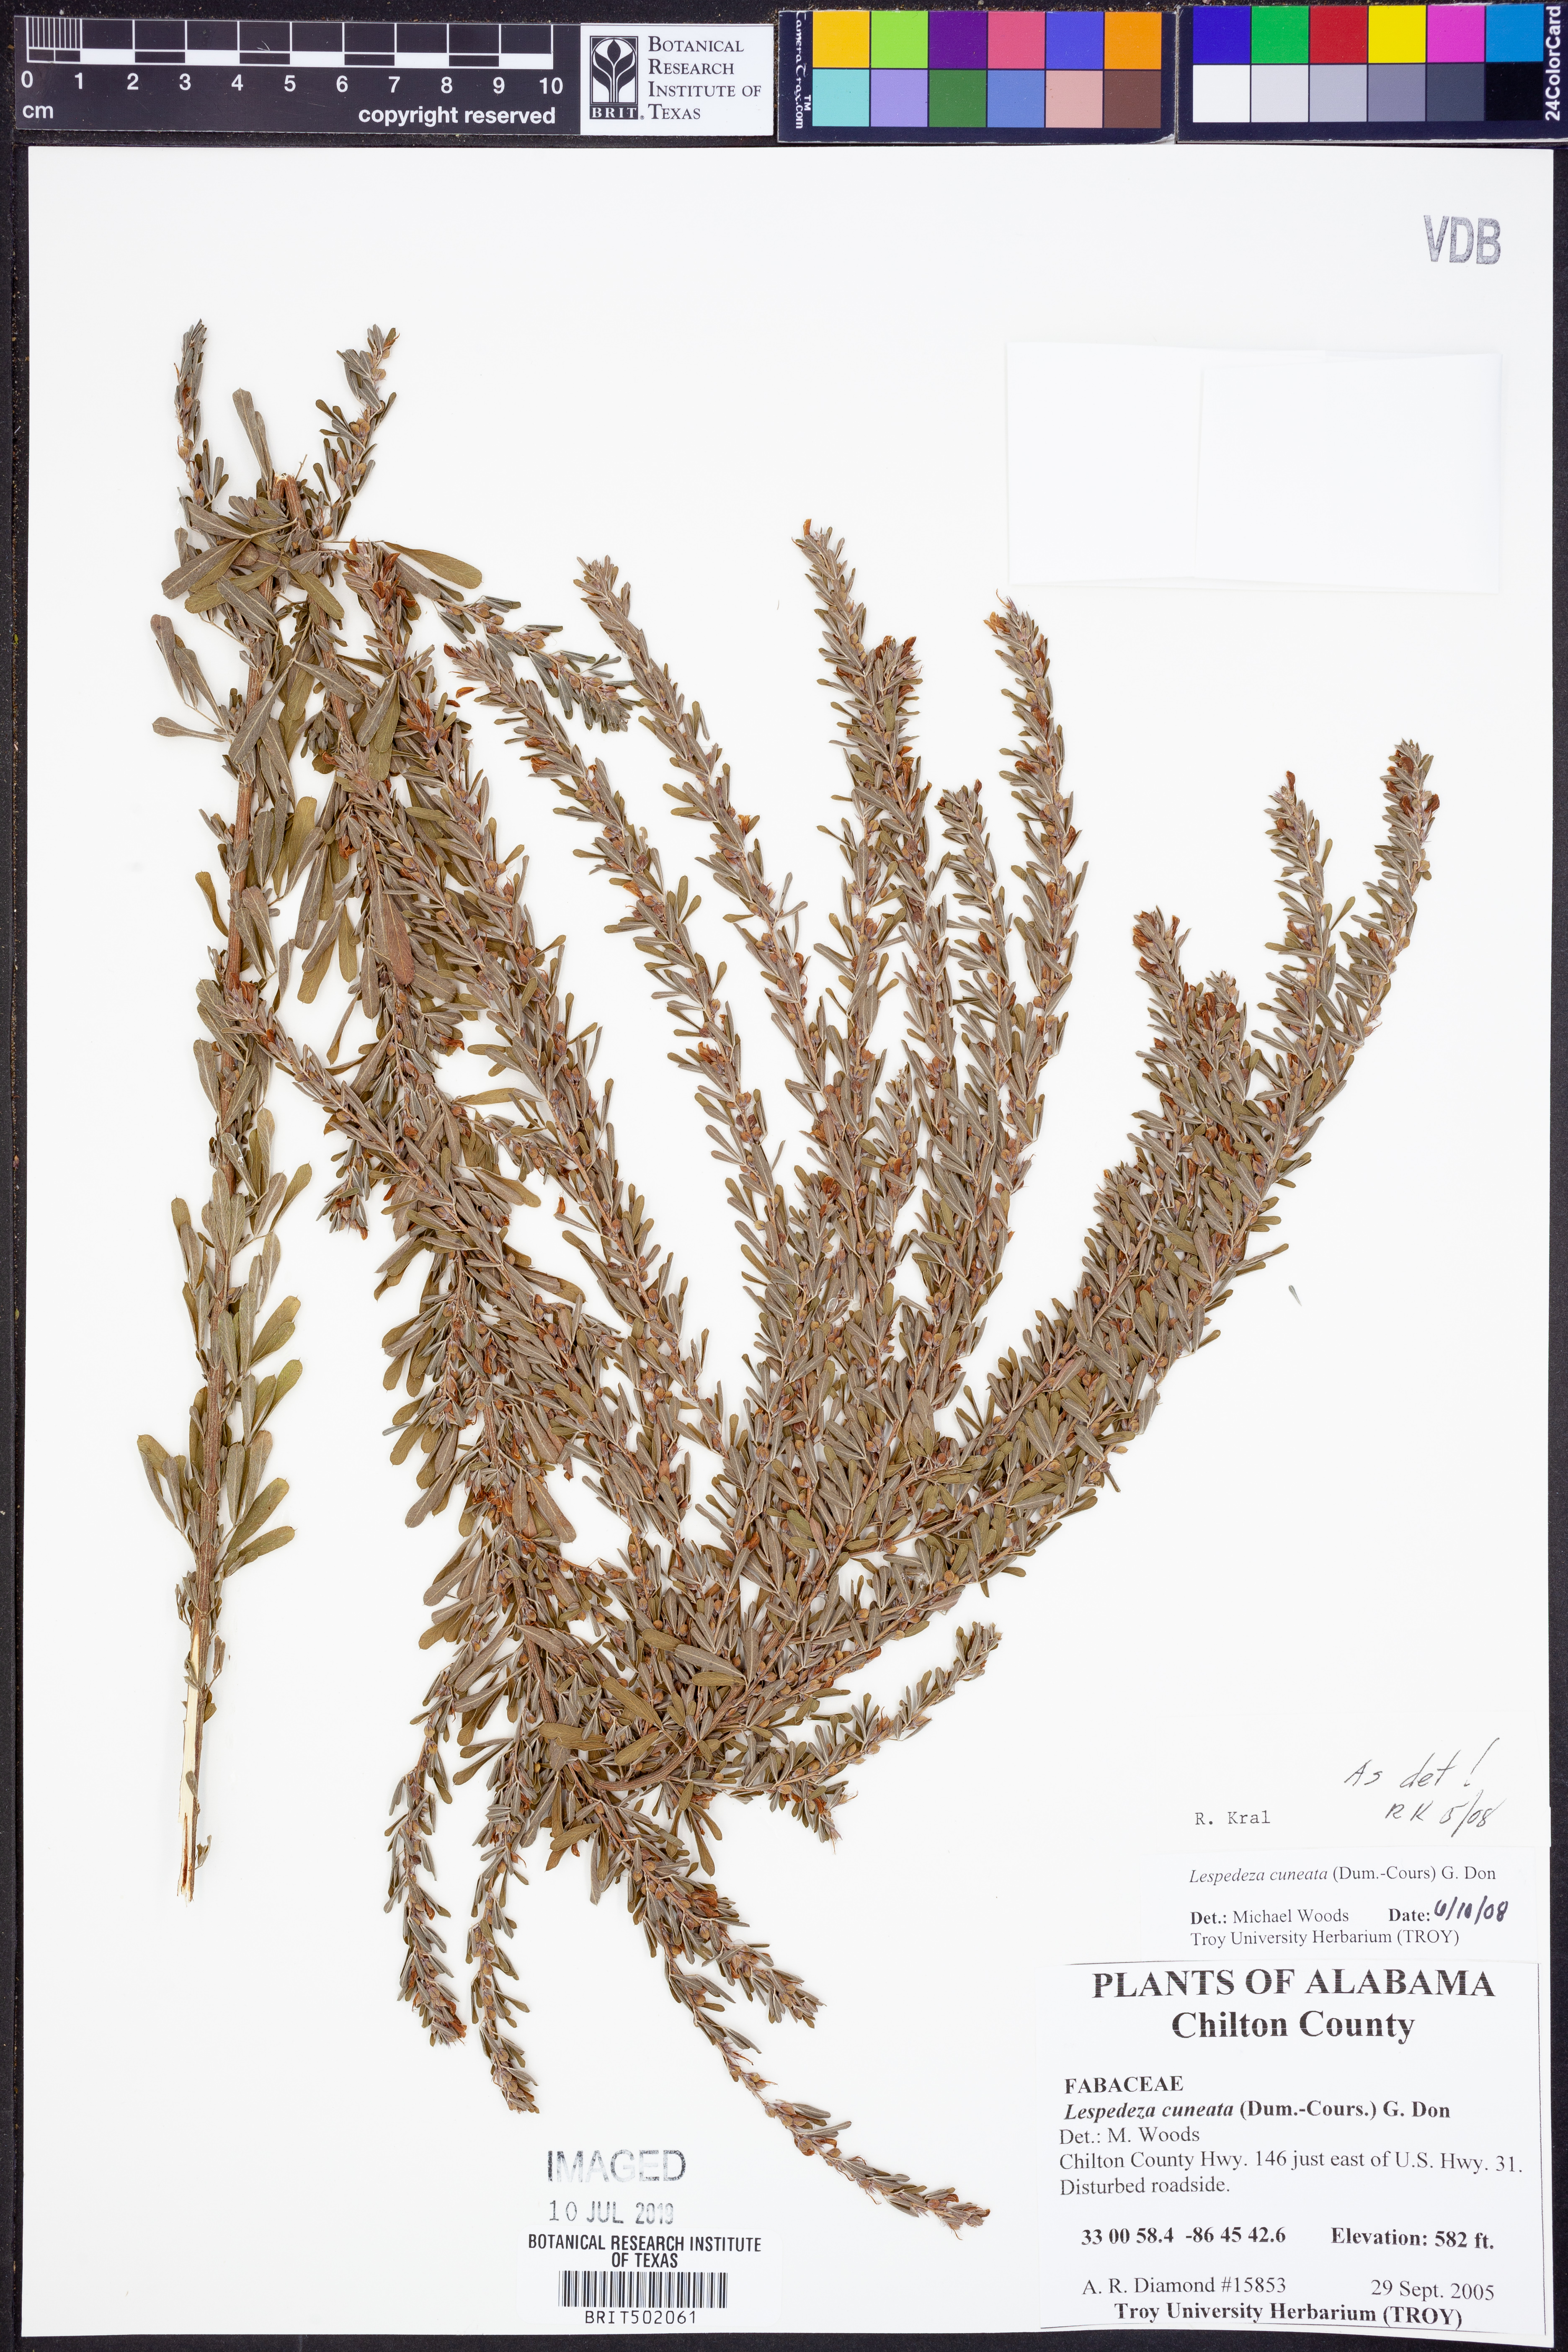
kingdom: Plantae
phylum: Tracheophyta
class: Magnoliopsida
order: Fabales
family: Fabaceae
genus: Lespedeza
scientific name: Lespedeza cuneata
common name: Chinese bush-clover
